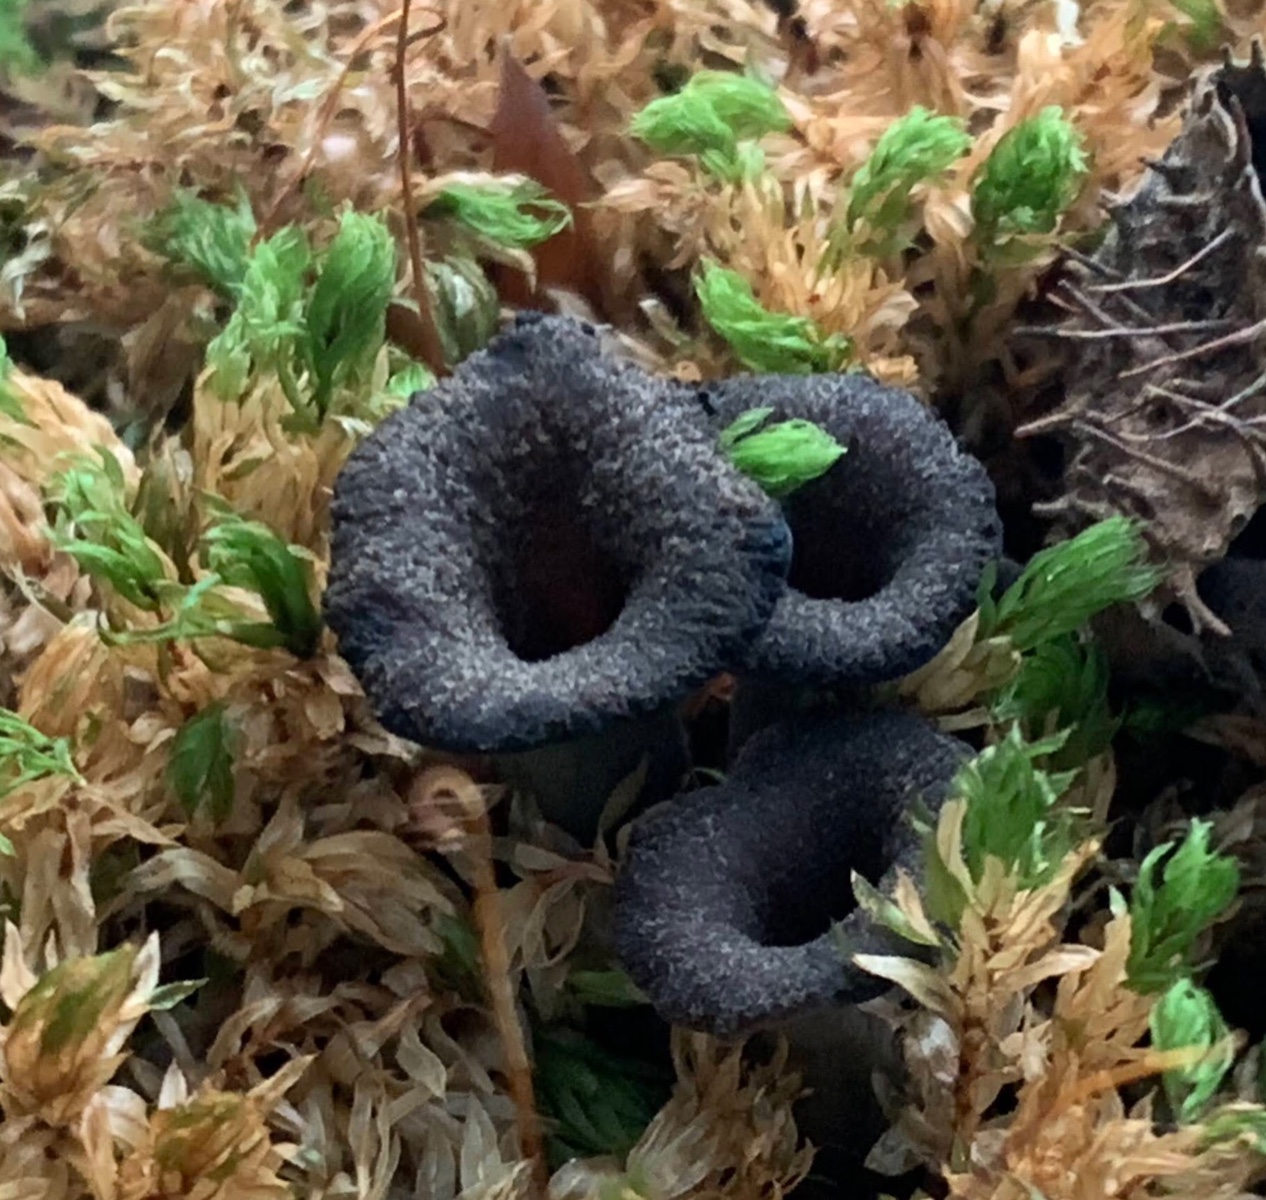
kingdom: Fungi
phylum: Basidiomycota
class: Agaricomycetes
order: Cantharellales
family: Hydnaceae
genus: Craterellus
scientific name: Craterellus cornucopioides
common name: trompetsvamp
